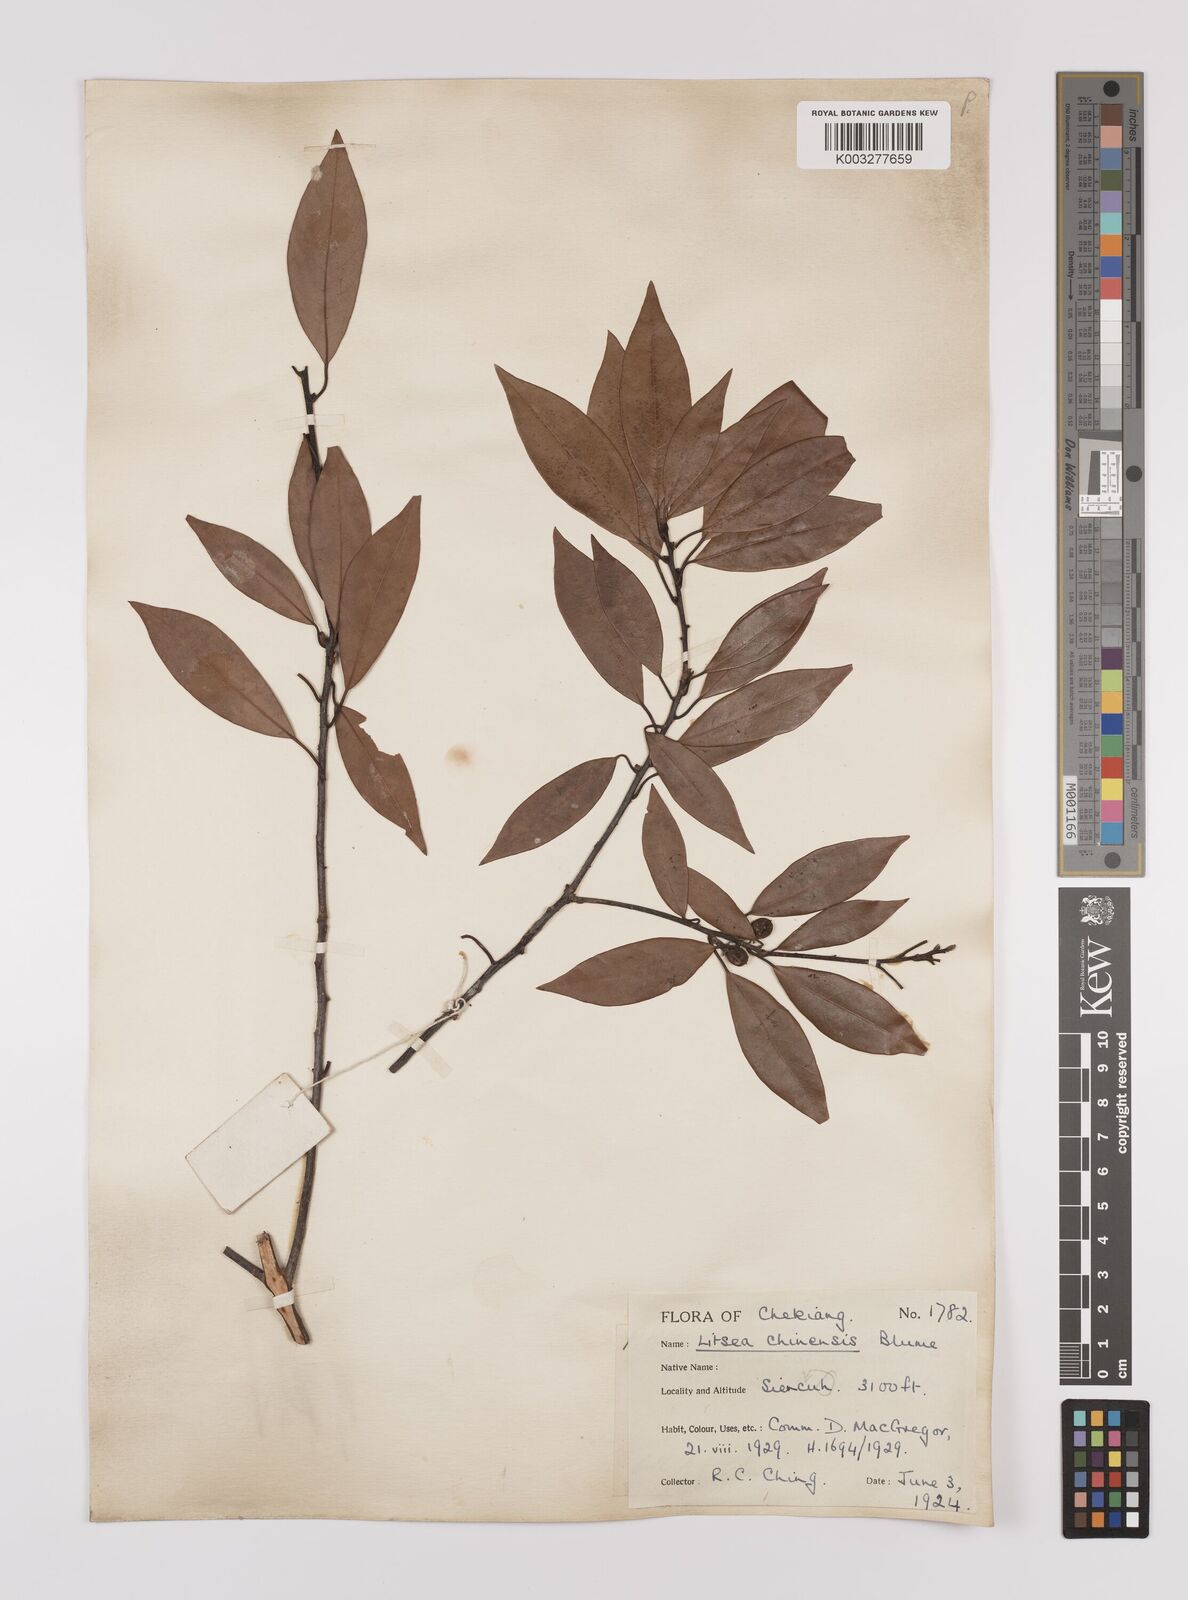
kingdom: Plantae
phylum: Tracheophyta
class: Magnoliopsida
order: Laurales
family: Lauraceae
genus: Litsea
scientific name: Litsea rotundifolia
